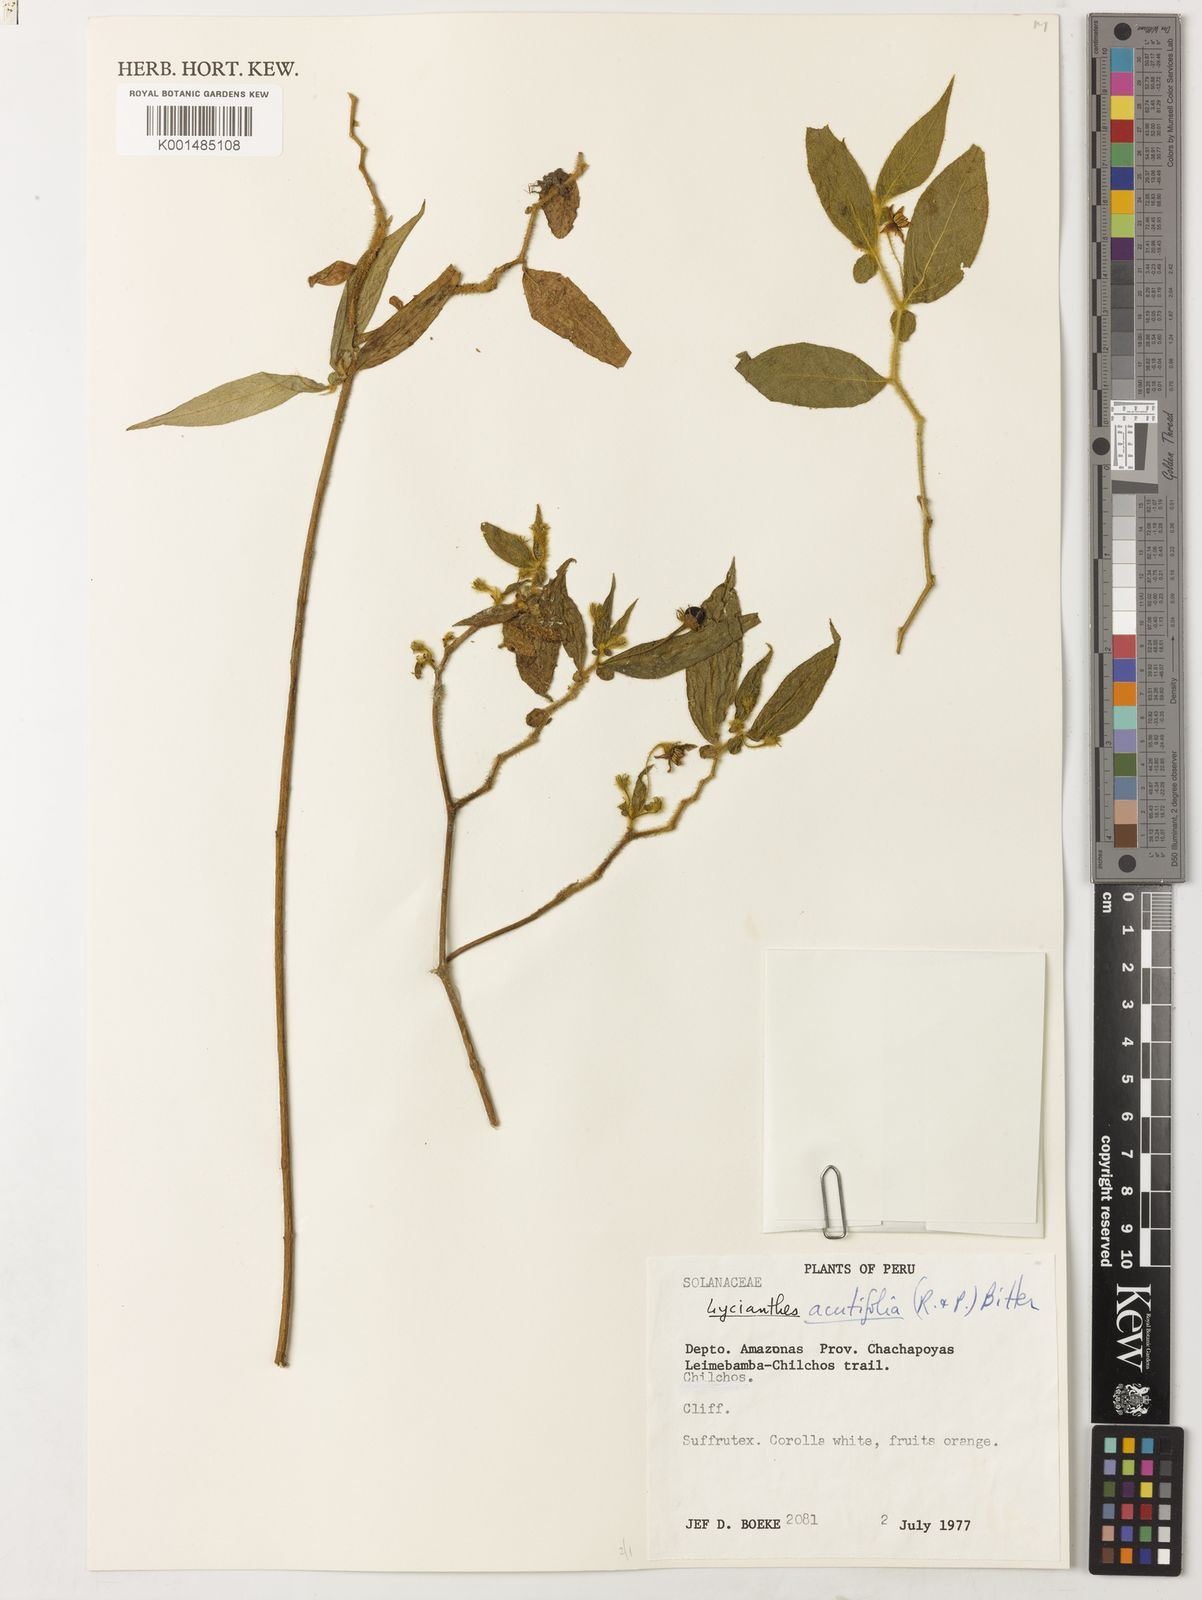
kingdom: Plantae
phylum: Tracheophyta
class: Magnoliopsida
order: Solanales
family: Solanaceae
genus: Lycianthes
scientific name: Lycianthes acutifolia
